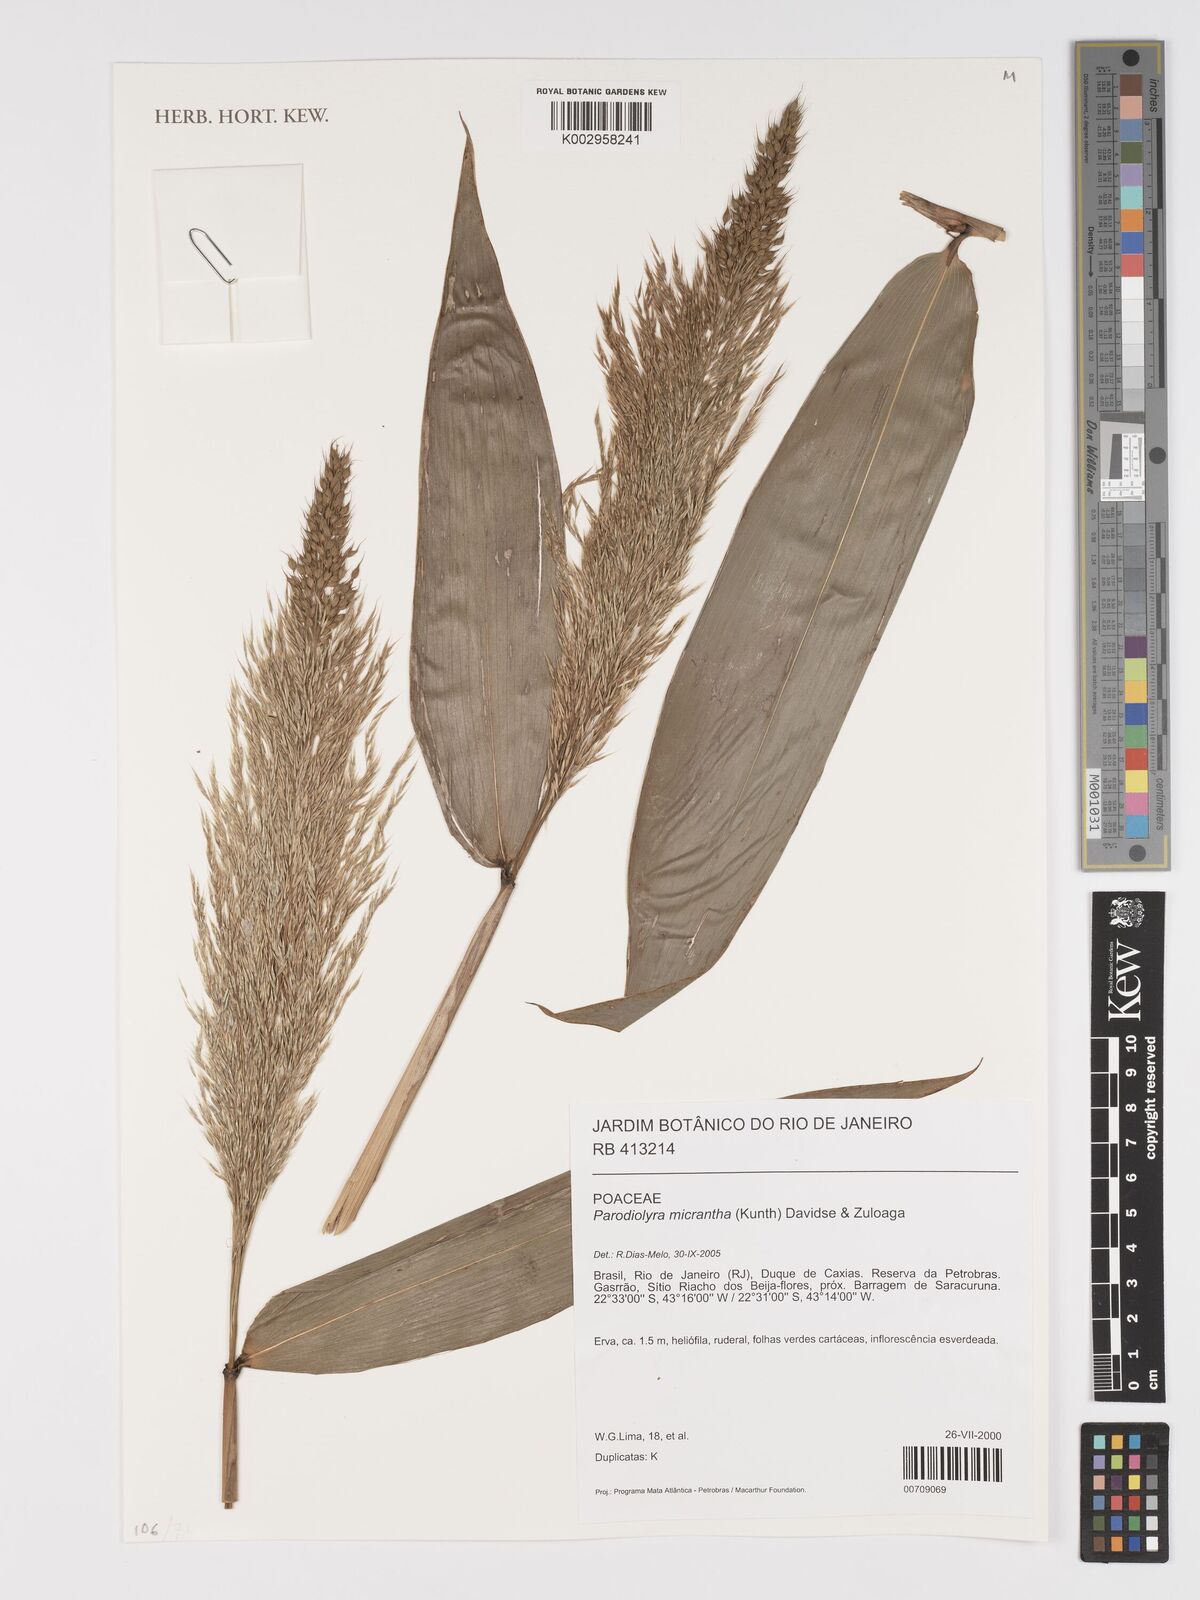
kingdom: Plantae
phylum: Tracheophyta
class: Liliopsida
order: Poales
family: Poaceae
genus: Taquara
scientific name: Taquara micrantha
